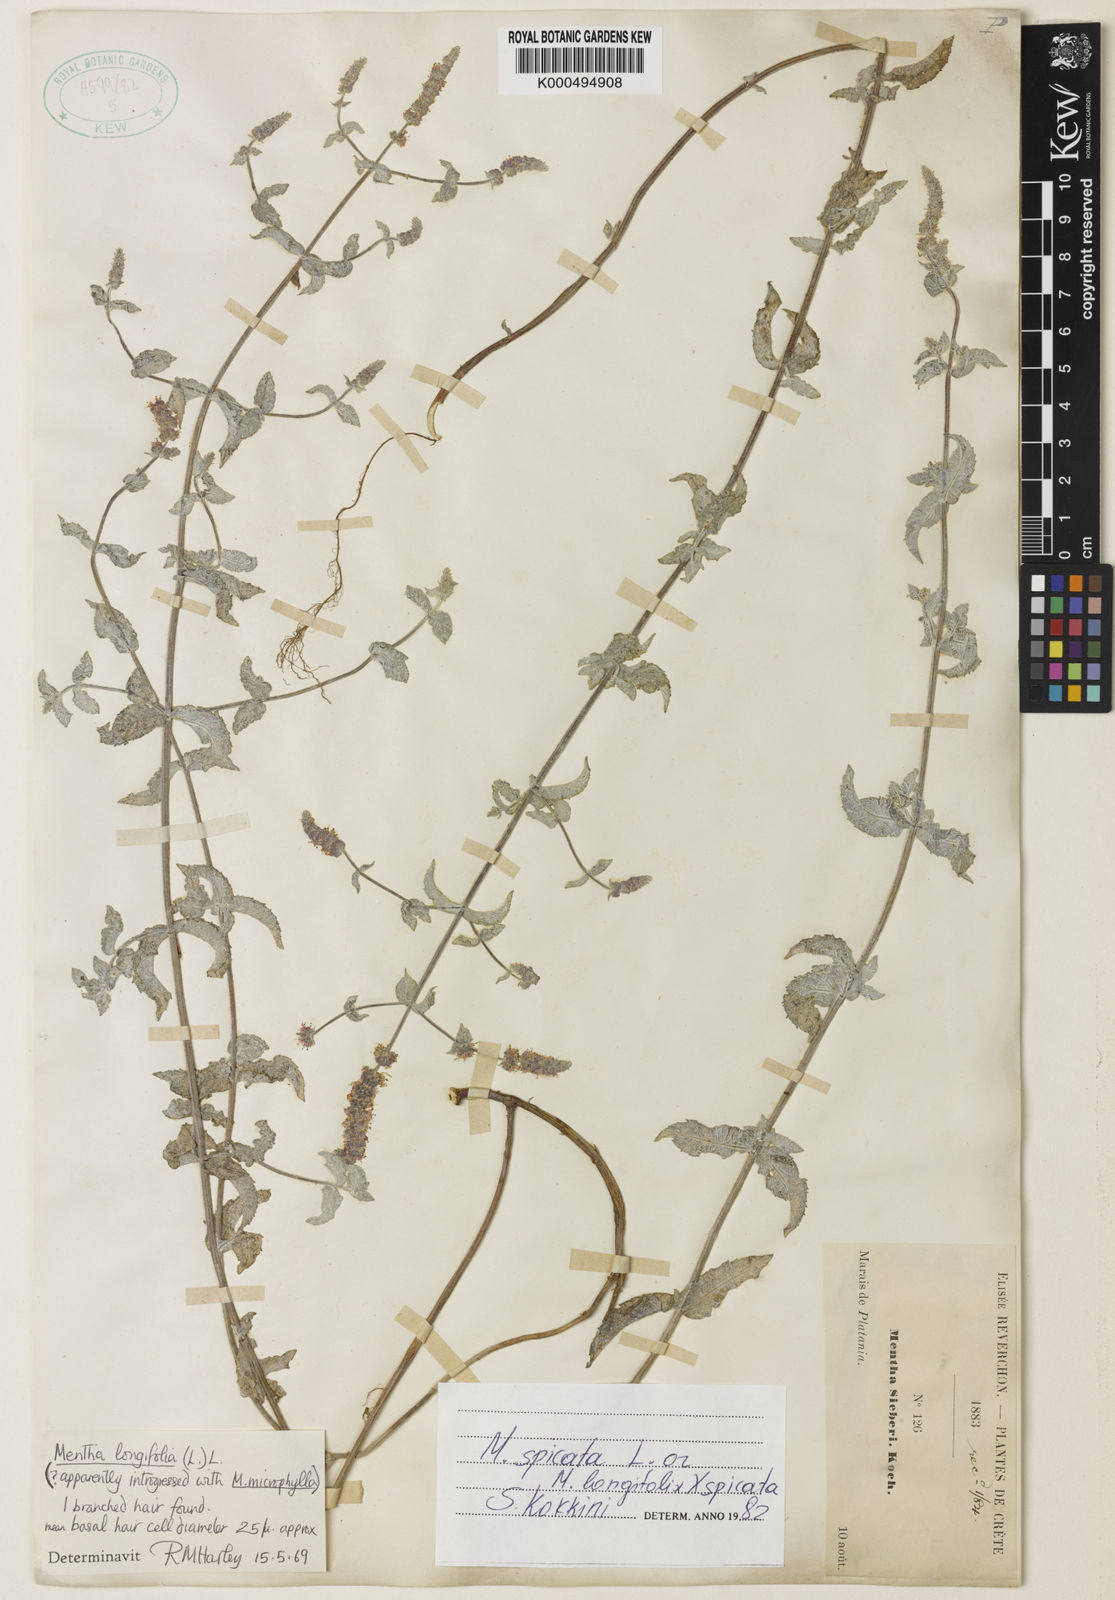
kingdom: Plantae
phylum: Tracheophyta
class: Magnoliopsida
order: Lamiales
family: Lamiaceae
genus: Mentha
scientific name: Mentha
